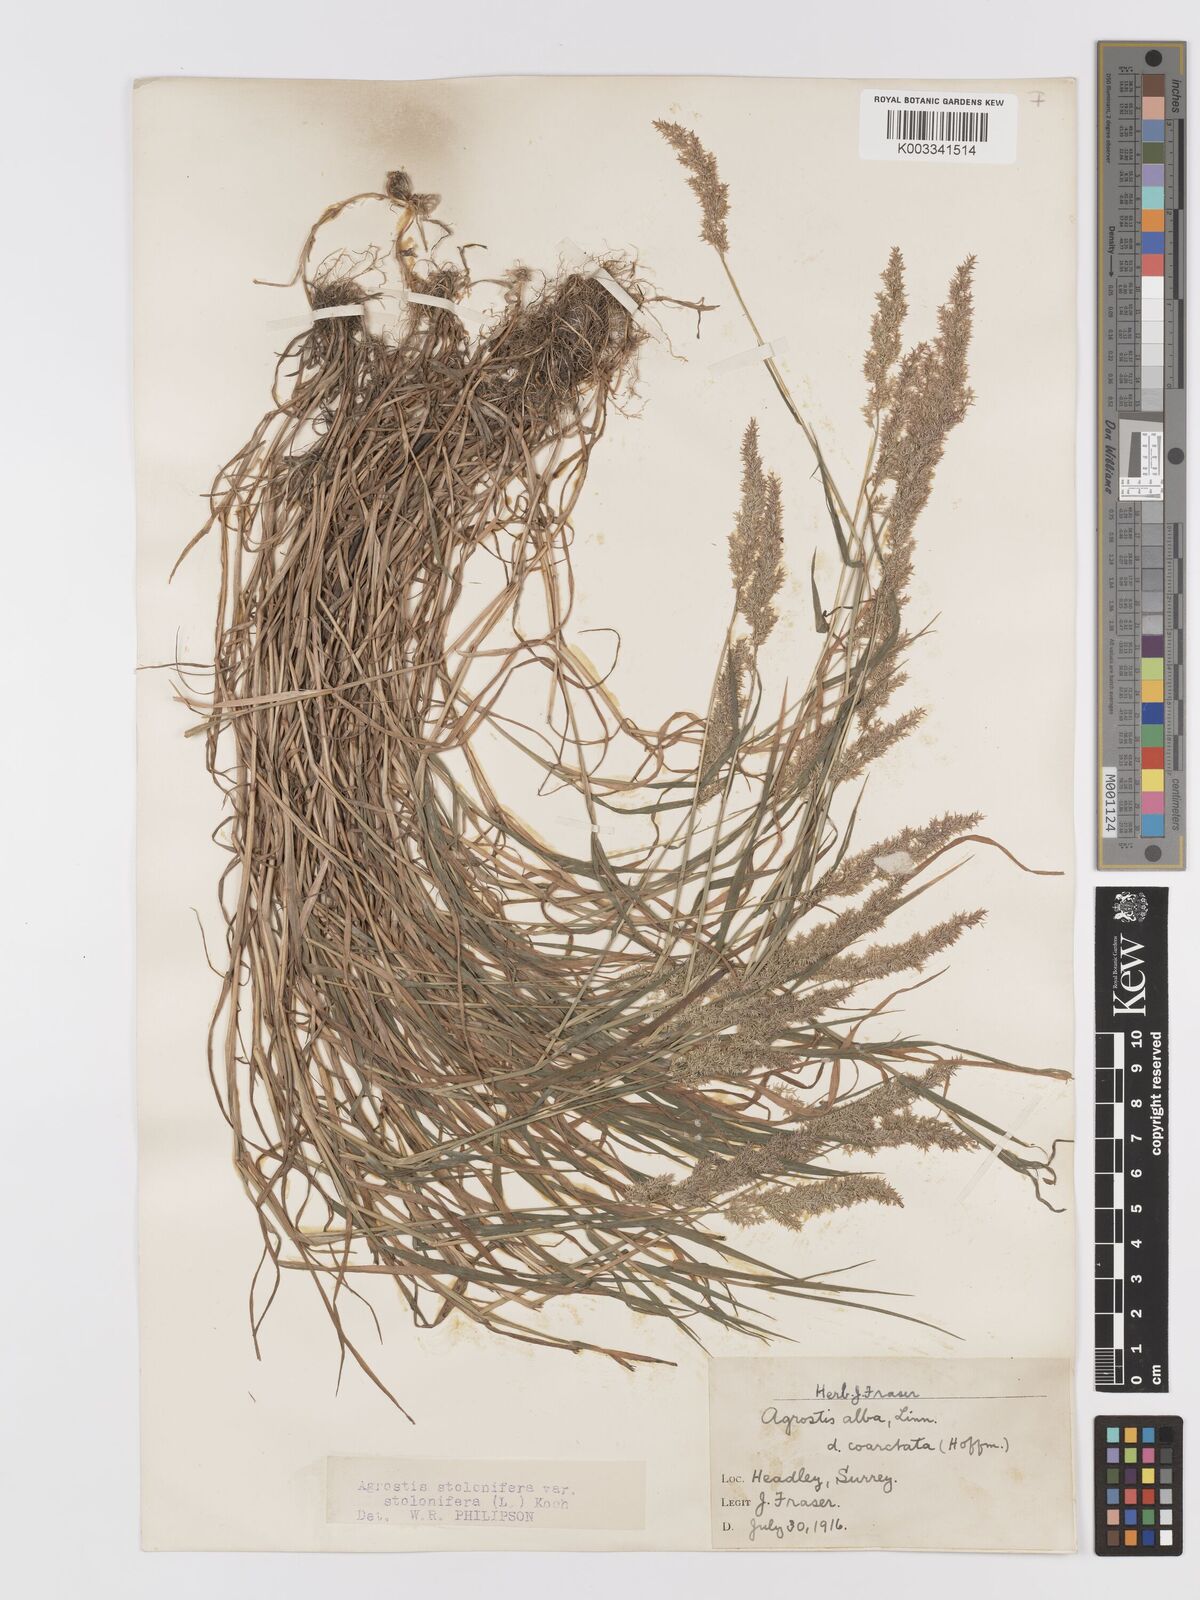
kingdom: Plantae
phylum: Tracheophyta
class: Liliopsida
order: Poales
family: Poaceae
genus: Agrostis
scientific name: Agrostis stolonifera
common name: Creeping bentgrass
